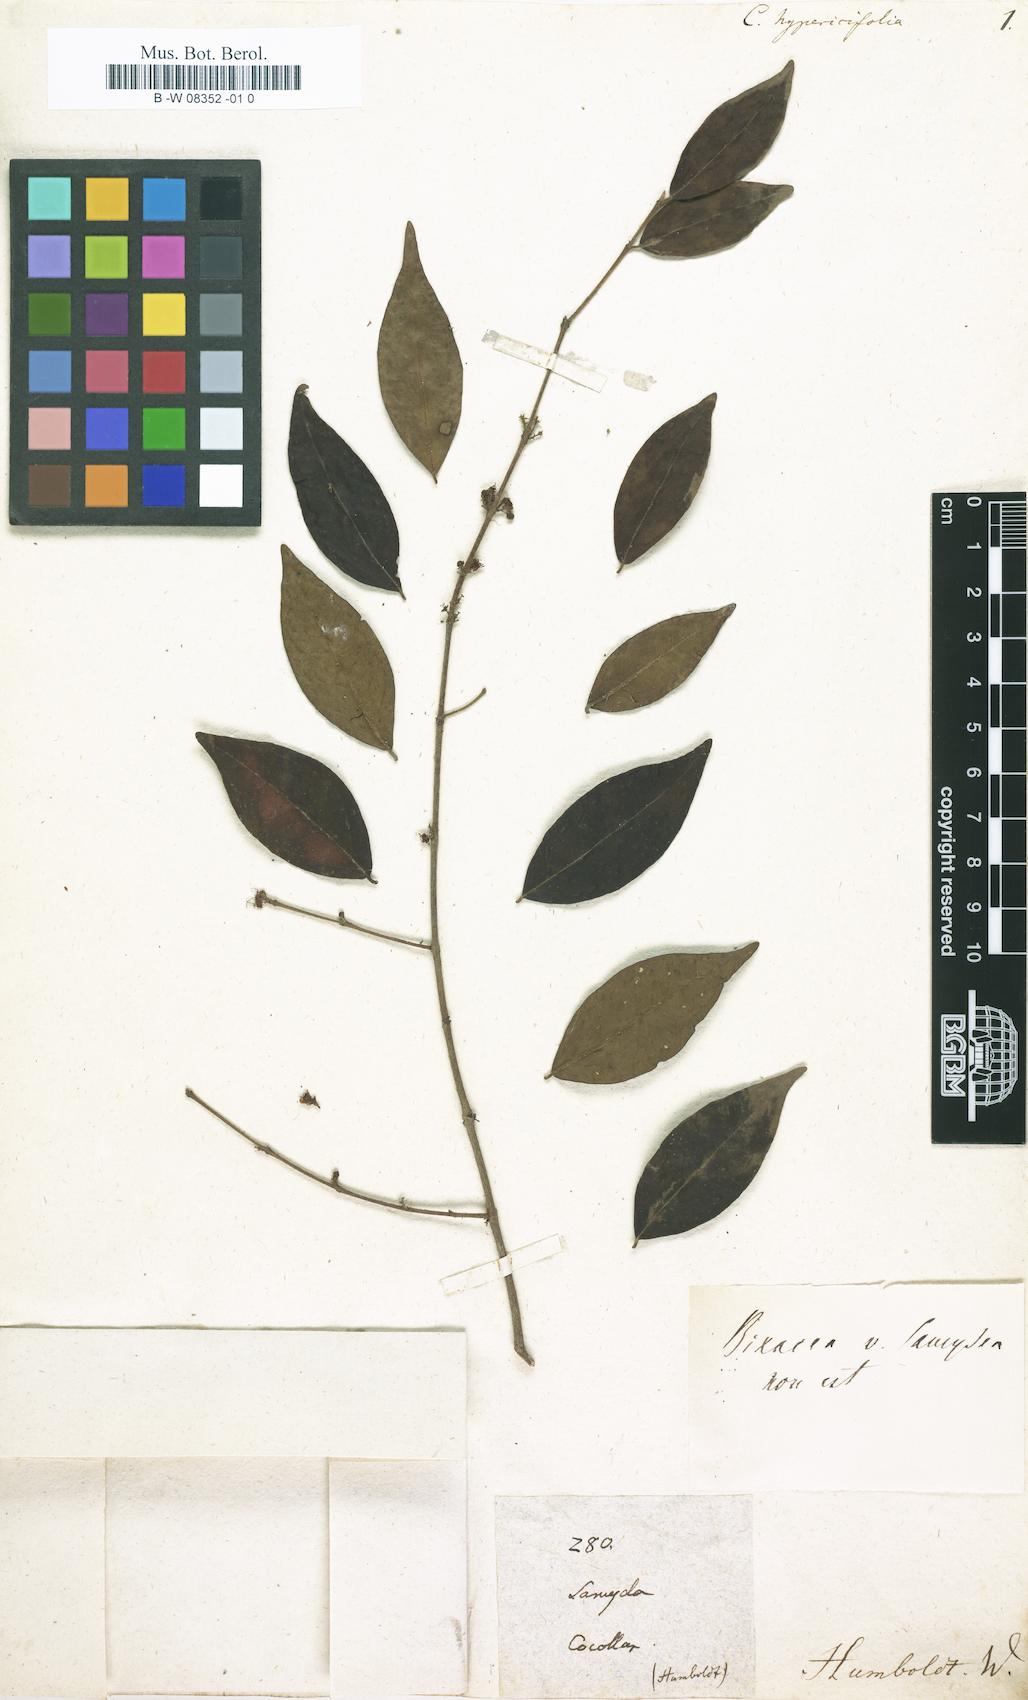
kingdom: Plantae
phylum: Tracheophyta
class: Magnoliopsida
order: Malpighiales
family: Salicaceae
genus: Casearia
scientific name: Casearia
